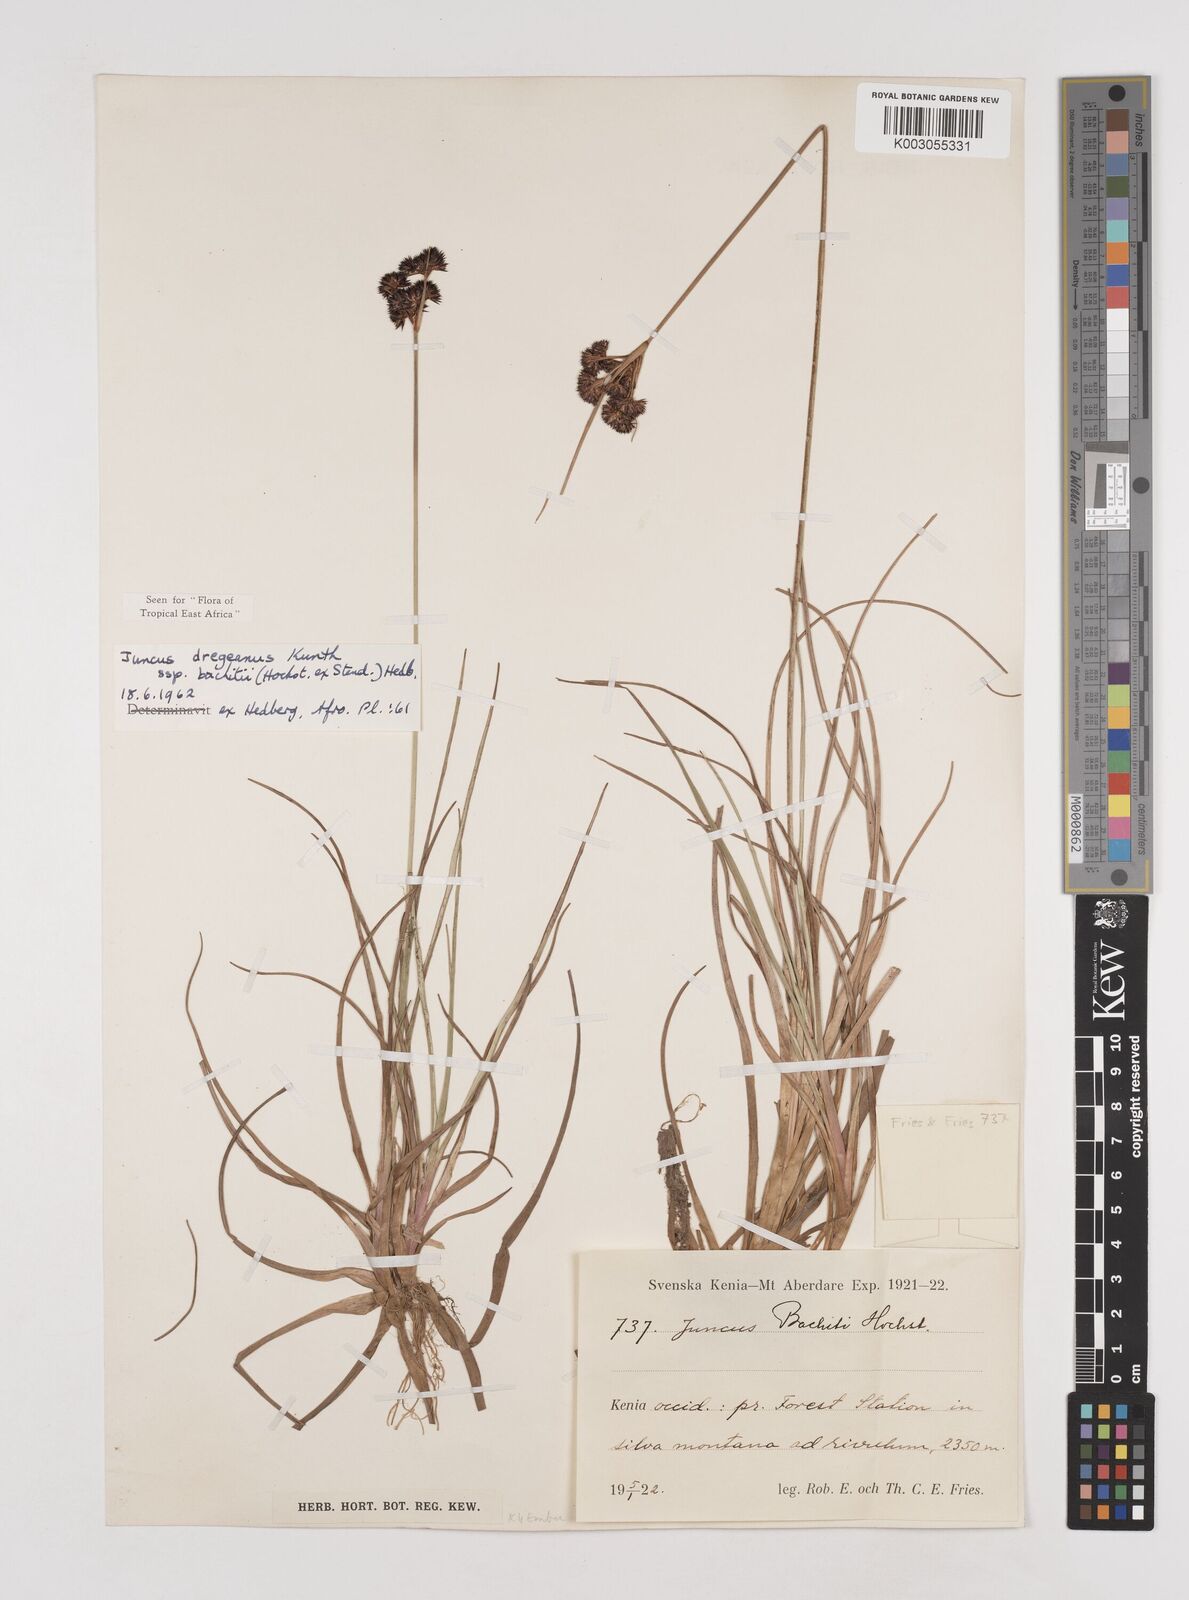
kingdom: Plantae
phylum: Tracheophyta
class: Liliopsida
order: Poales
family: Juncaceae
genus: Juncus
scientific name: Juncus dregeanus
